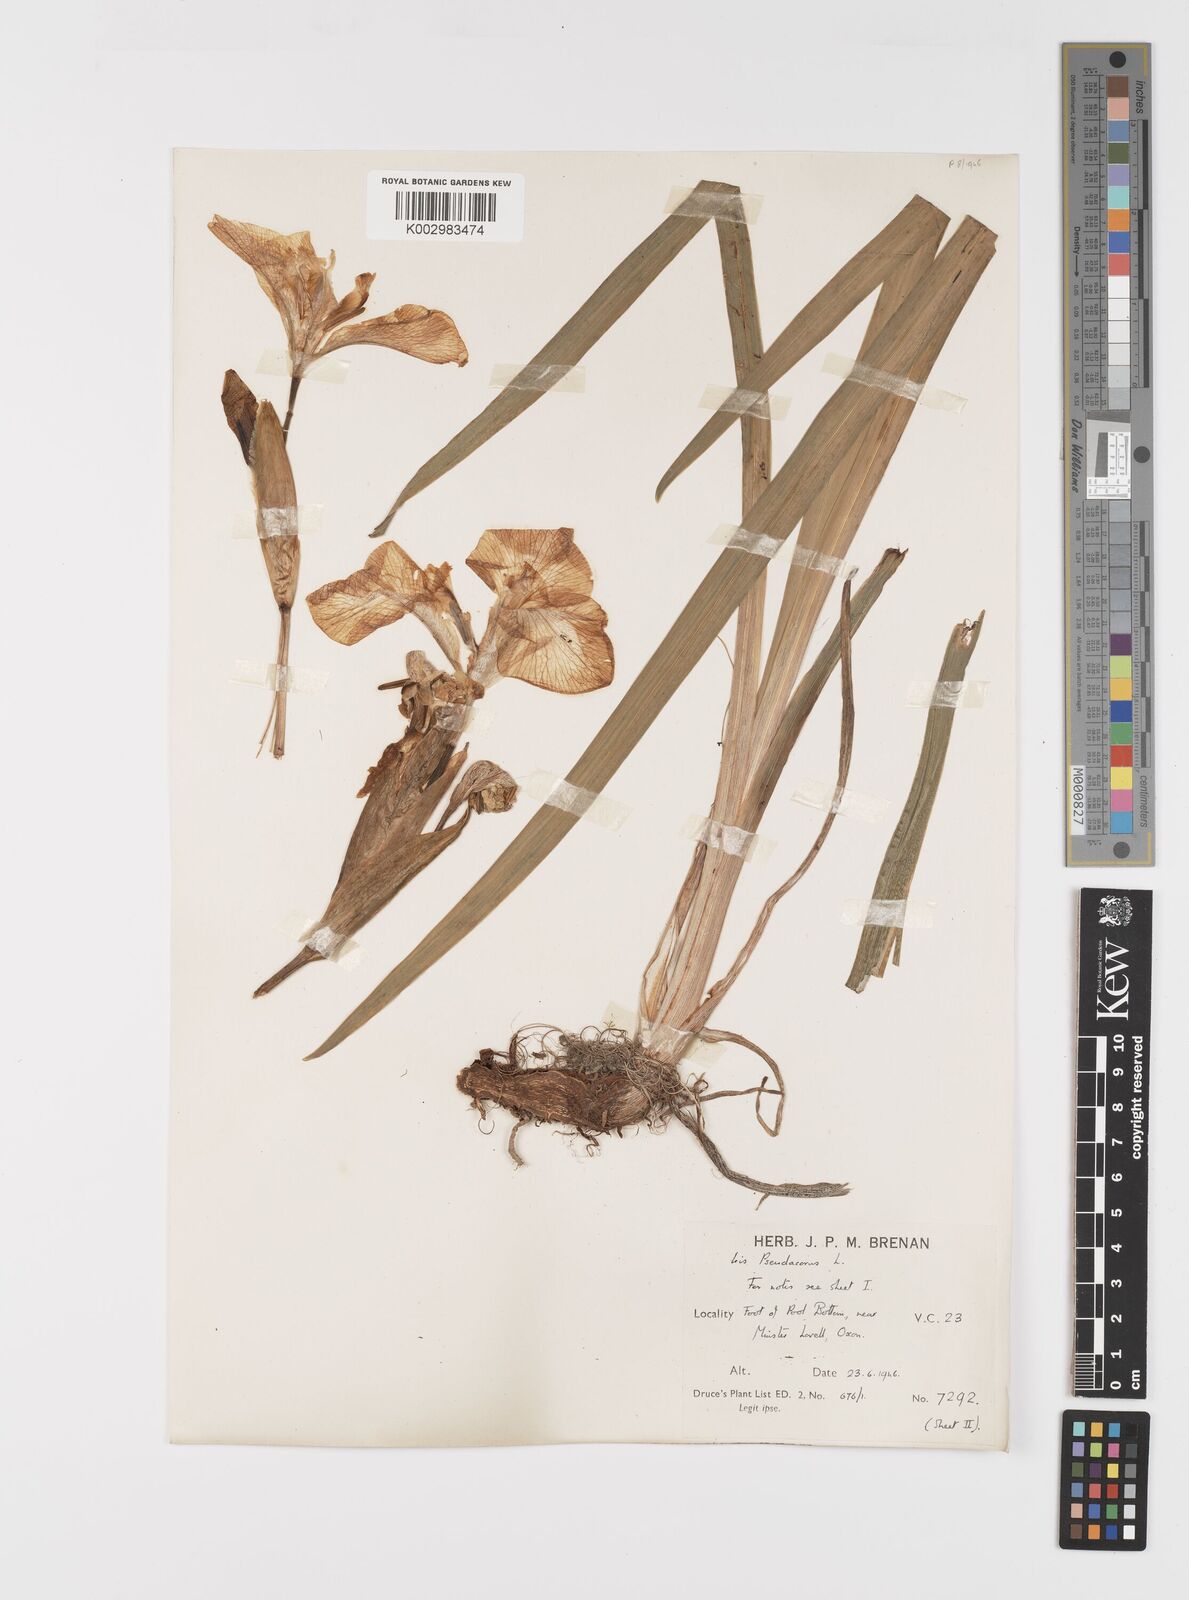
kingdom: Plantae
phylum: Tracheophyta
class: Liliopsida
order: Asparagales
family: Iridaceae
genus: Iris
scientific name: Iris pseudacorus
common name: Yellow flag
